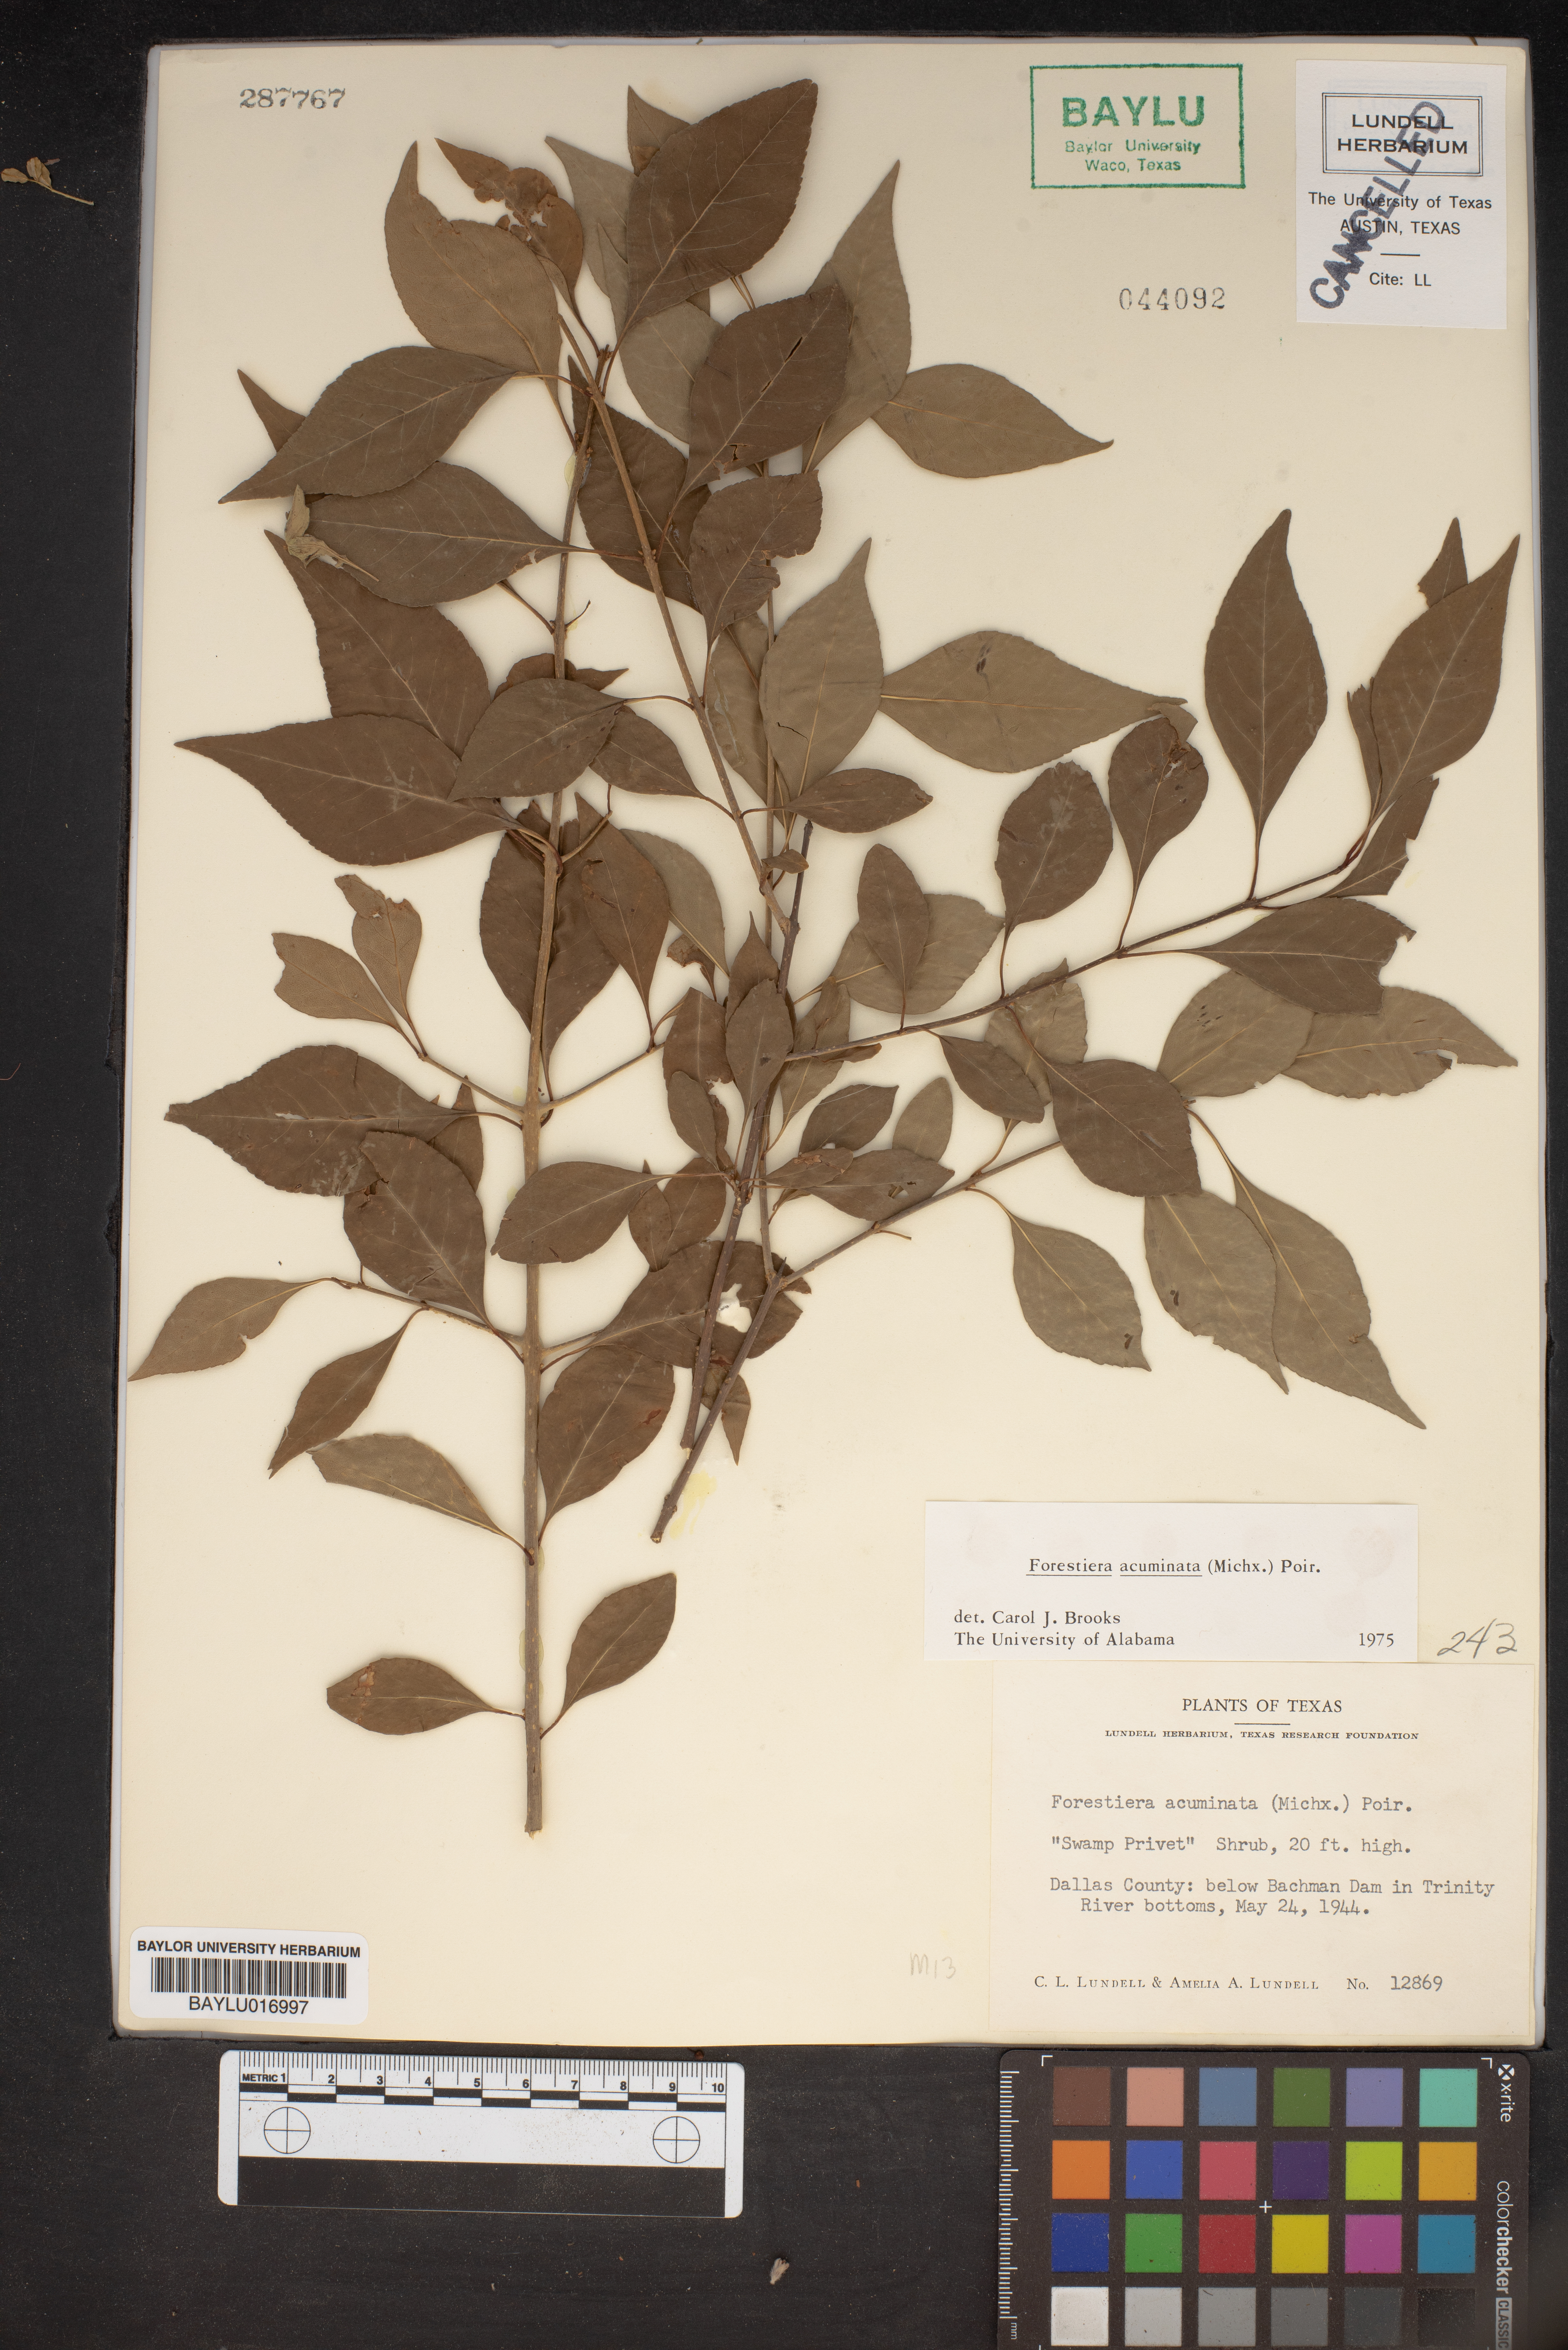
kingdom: Plantae
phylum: Tracheophyta
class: Magnoliopsida
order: Lamiales
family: Oleaceae
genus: Forestiera
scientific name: Forestiera acuminata
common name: Swamp-privet
